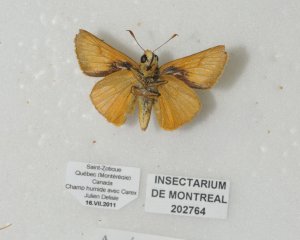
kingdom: Animalia
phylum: Arthropoda
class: Insecta
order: Lepidoptera
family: Hesperiidae
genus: Atrytone
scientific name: Atrytone delaware
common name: Delaware Skipper
